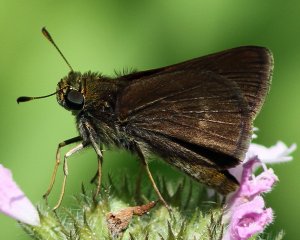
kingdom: Animalia
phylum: Arthropoda
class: Insecta
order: Lepidoptera
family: Hesperiidae
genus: Euphyes
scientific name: Euphyes vestris
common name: Dun Skipper
